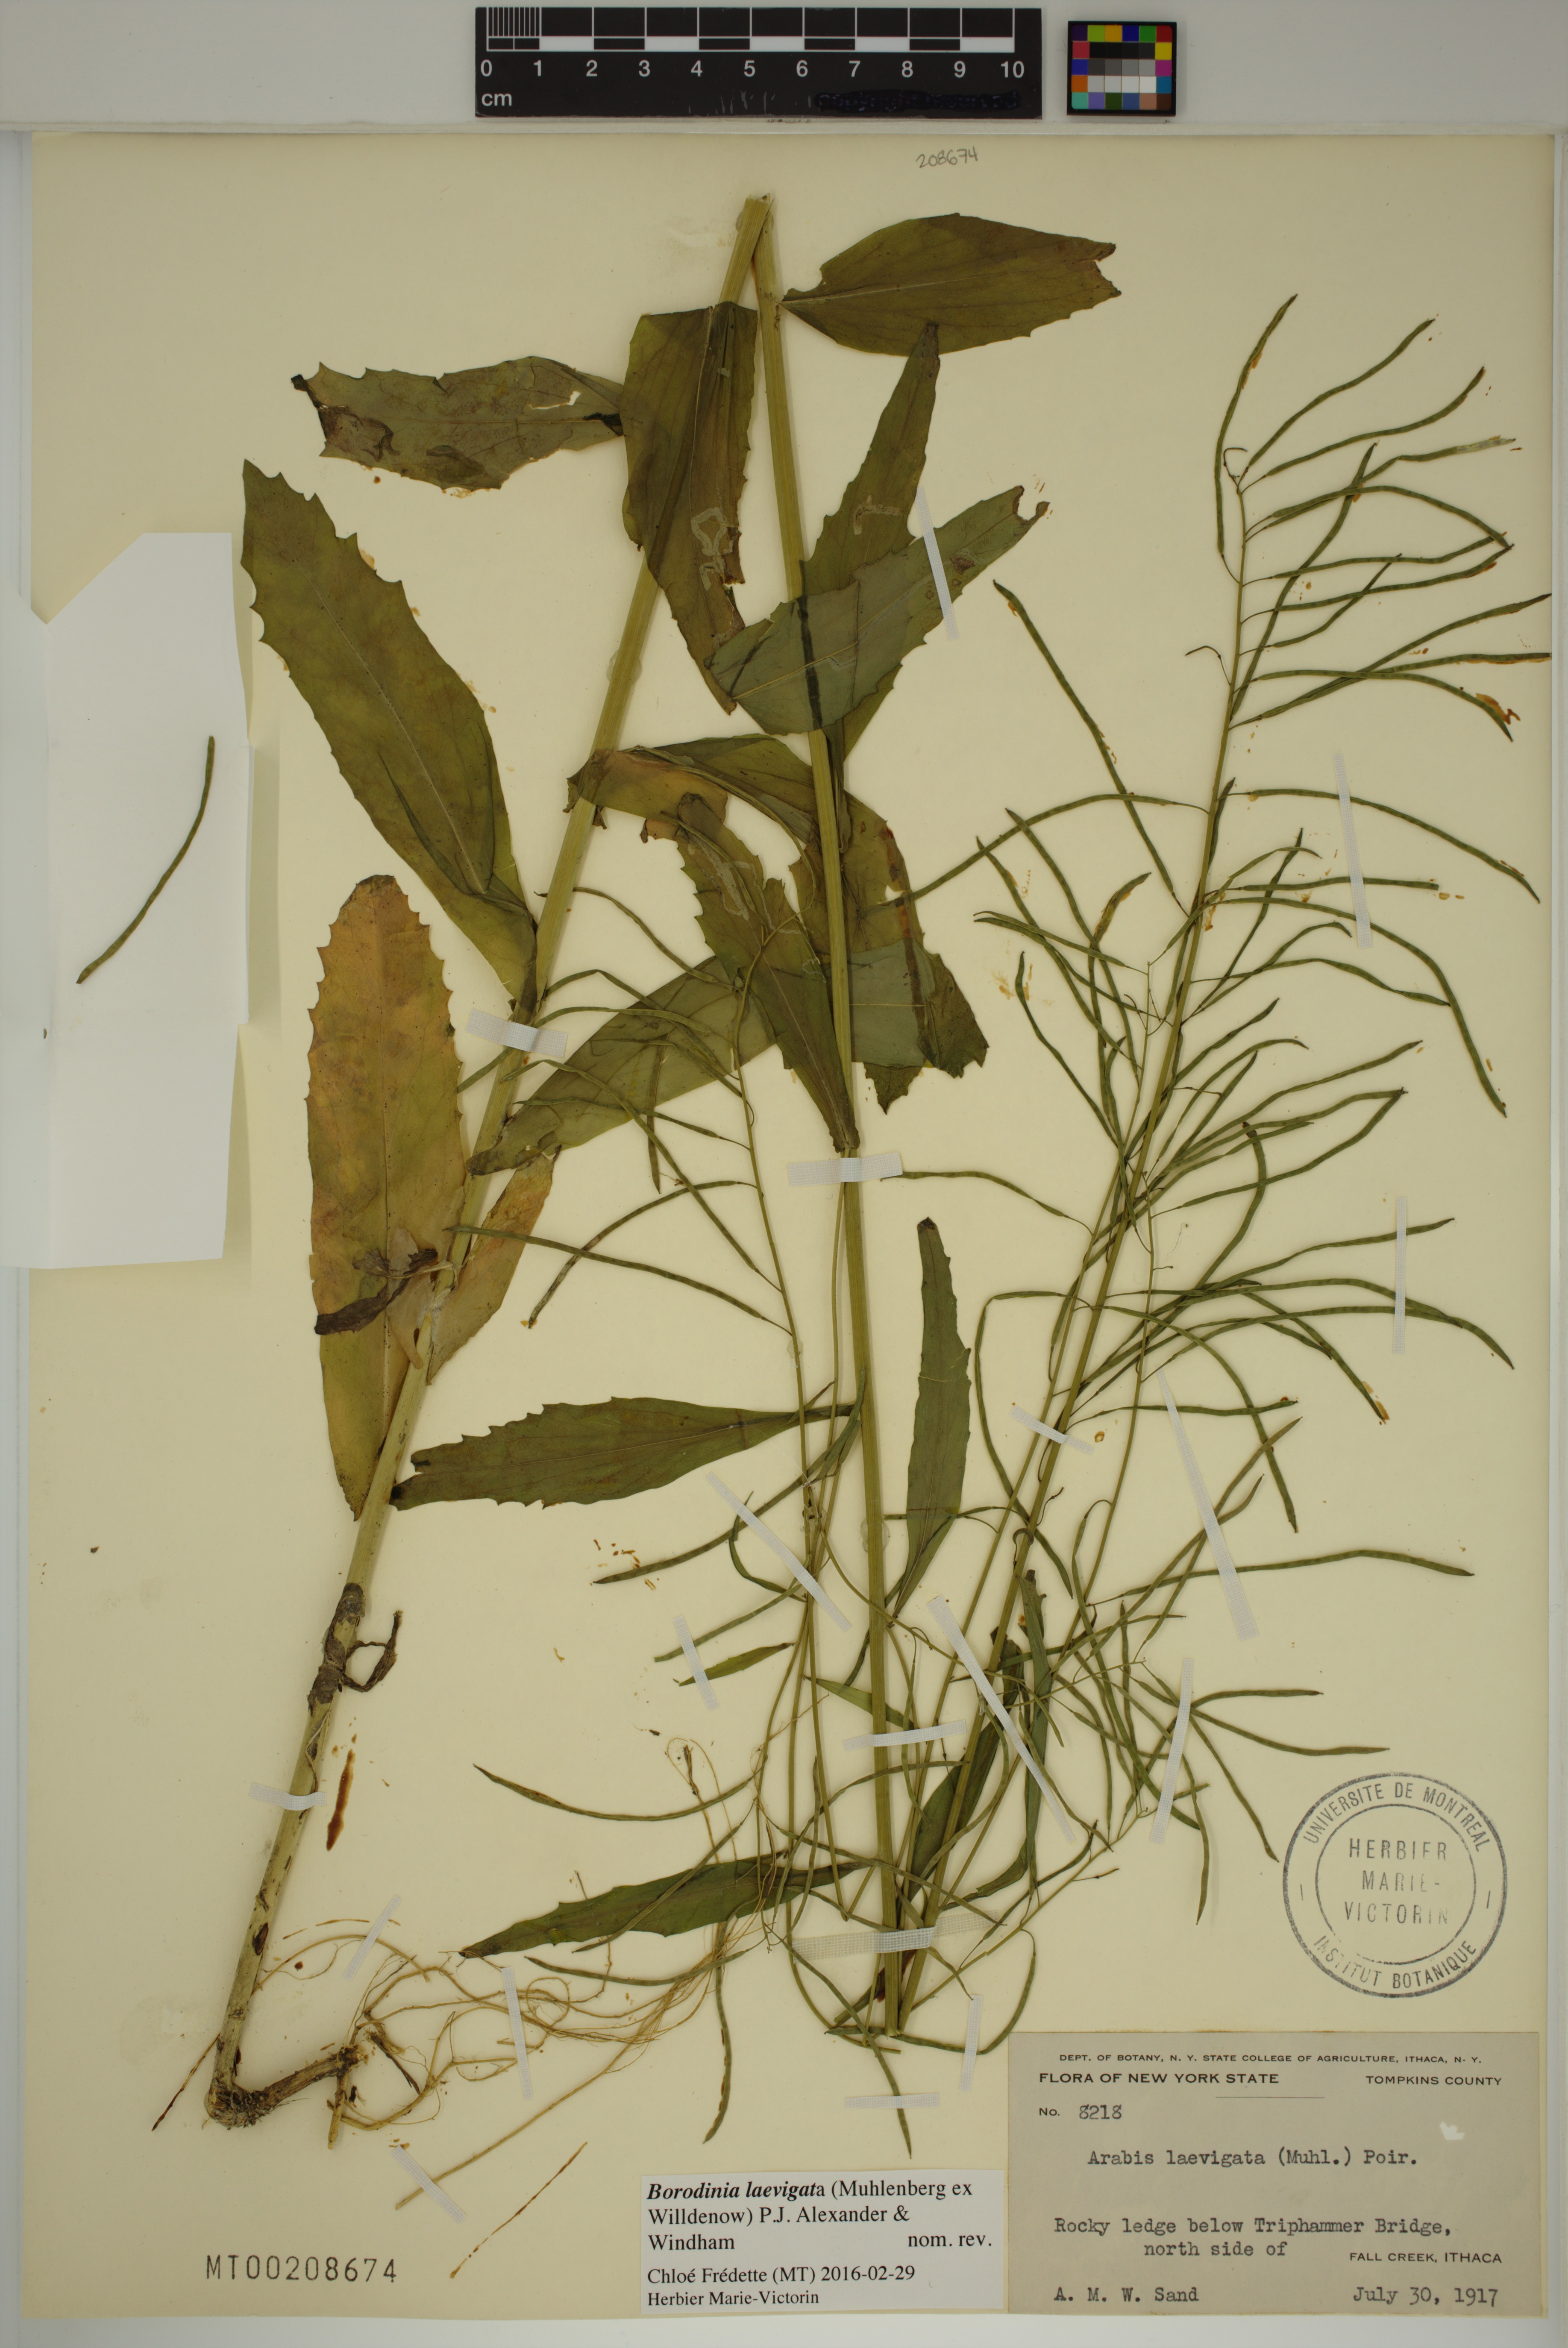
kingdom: Plantae
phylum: Tracheophyta
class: Magnoliopsida
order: Brassicales
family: Brassicaceae
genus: Borodinia
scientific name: Borodinia laevigata
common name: Smooth rockcress
